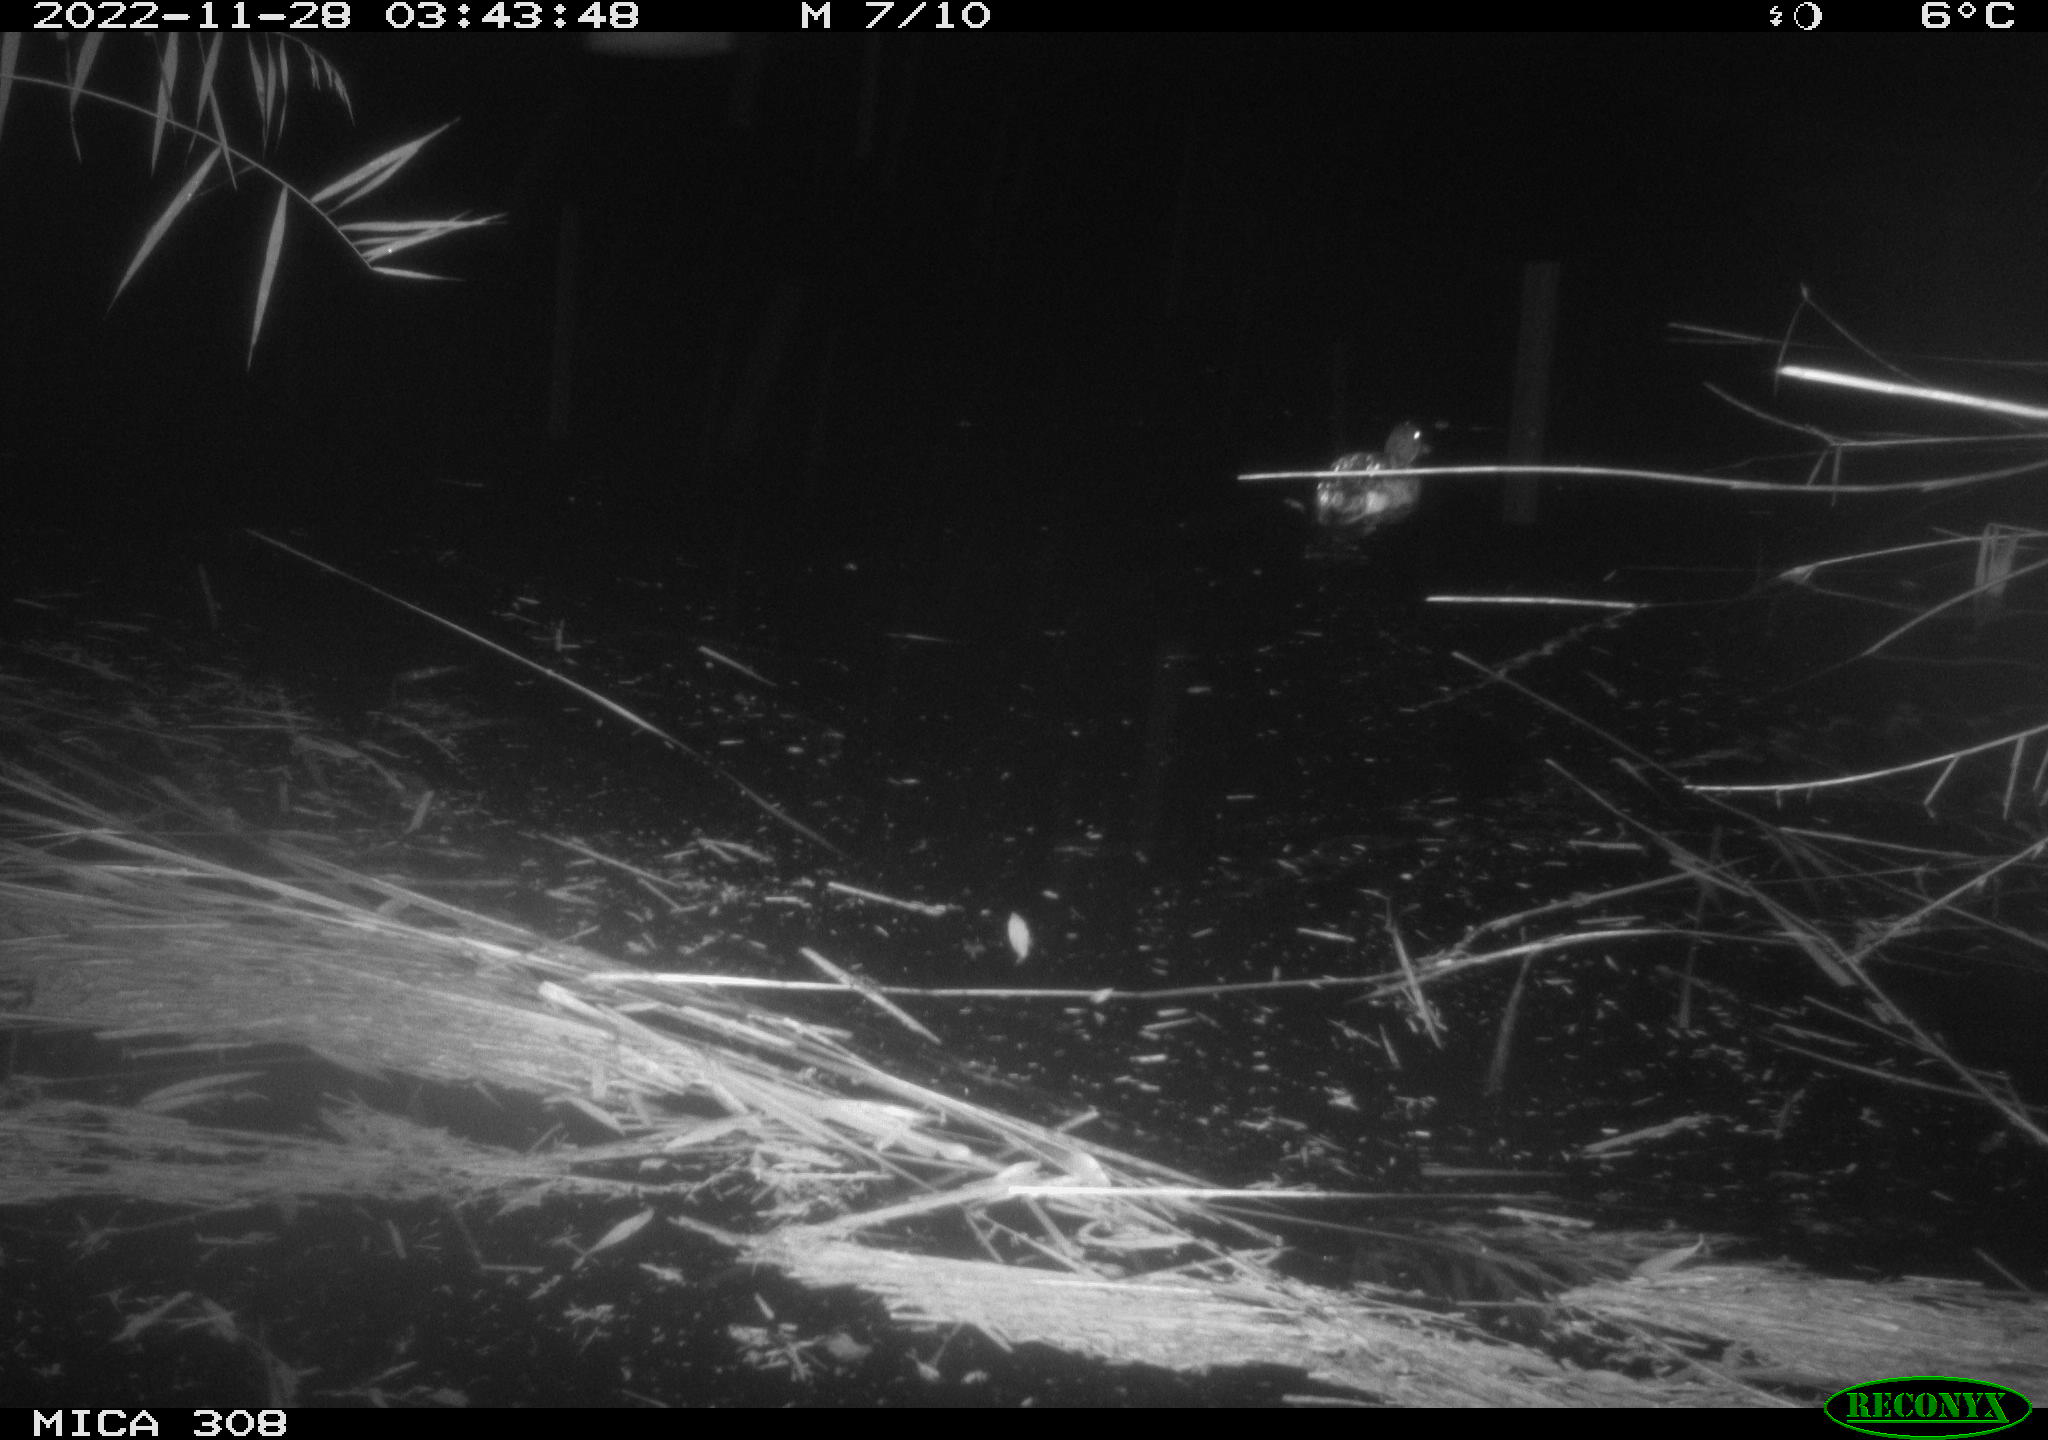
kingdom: Animalia
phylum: Chordata
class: Aves
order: Anseriformes
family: Anatidae
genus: Anas
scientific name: Anas
